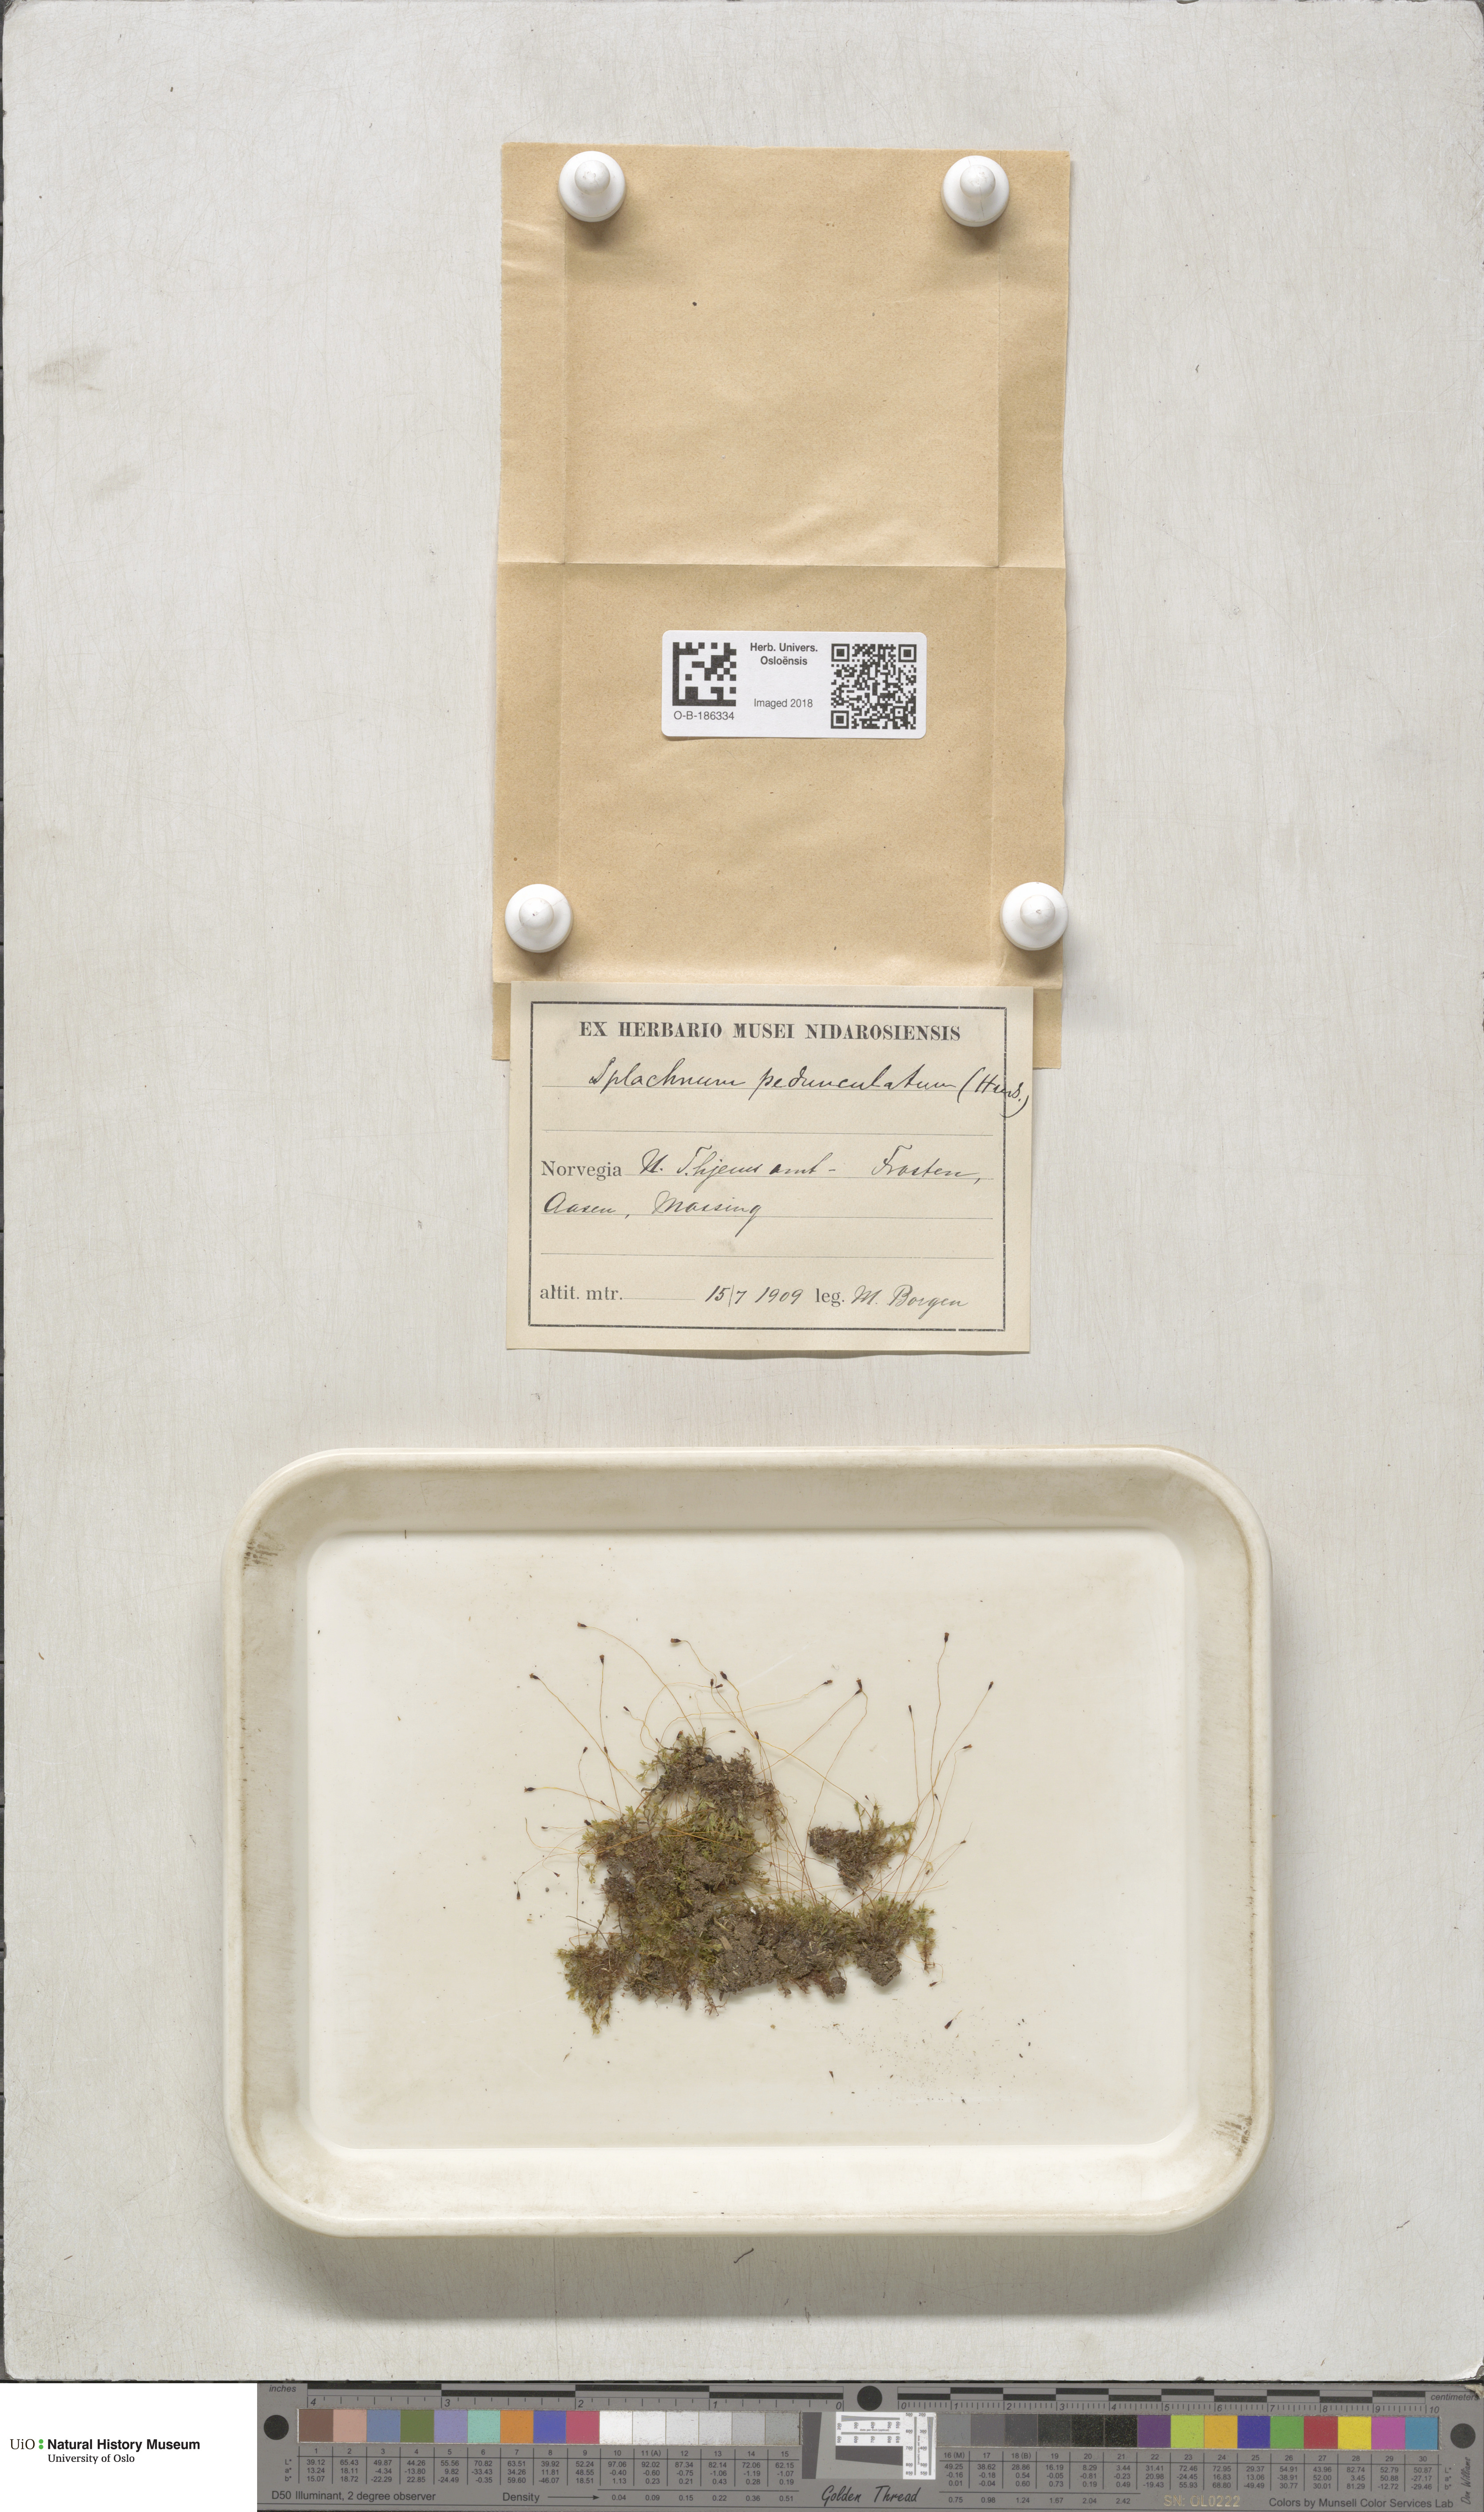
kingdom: Plantae
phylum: Bryophyta
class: Bryopsida
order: Splachnales
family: Splachnaceae
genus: Splachnum
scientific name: Splachnum sphaericum
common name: Round-fruited dung moss
